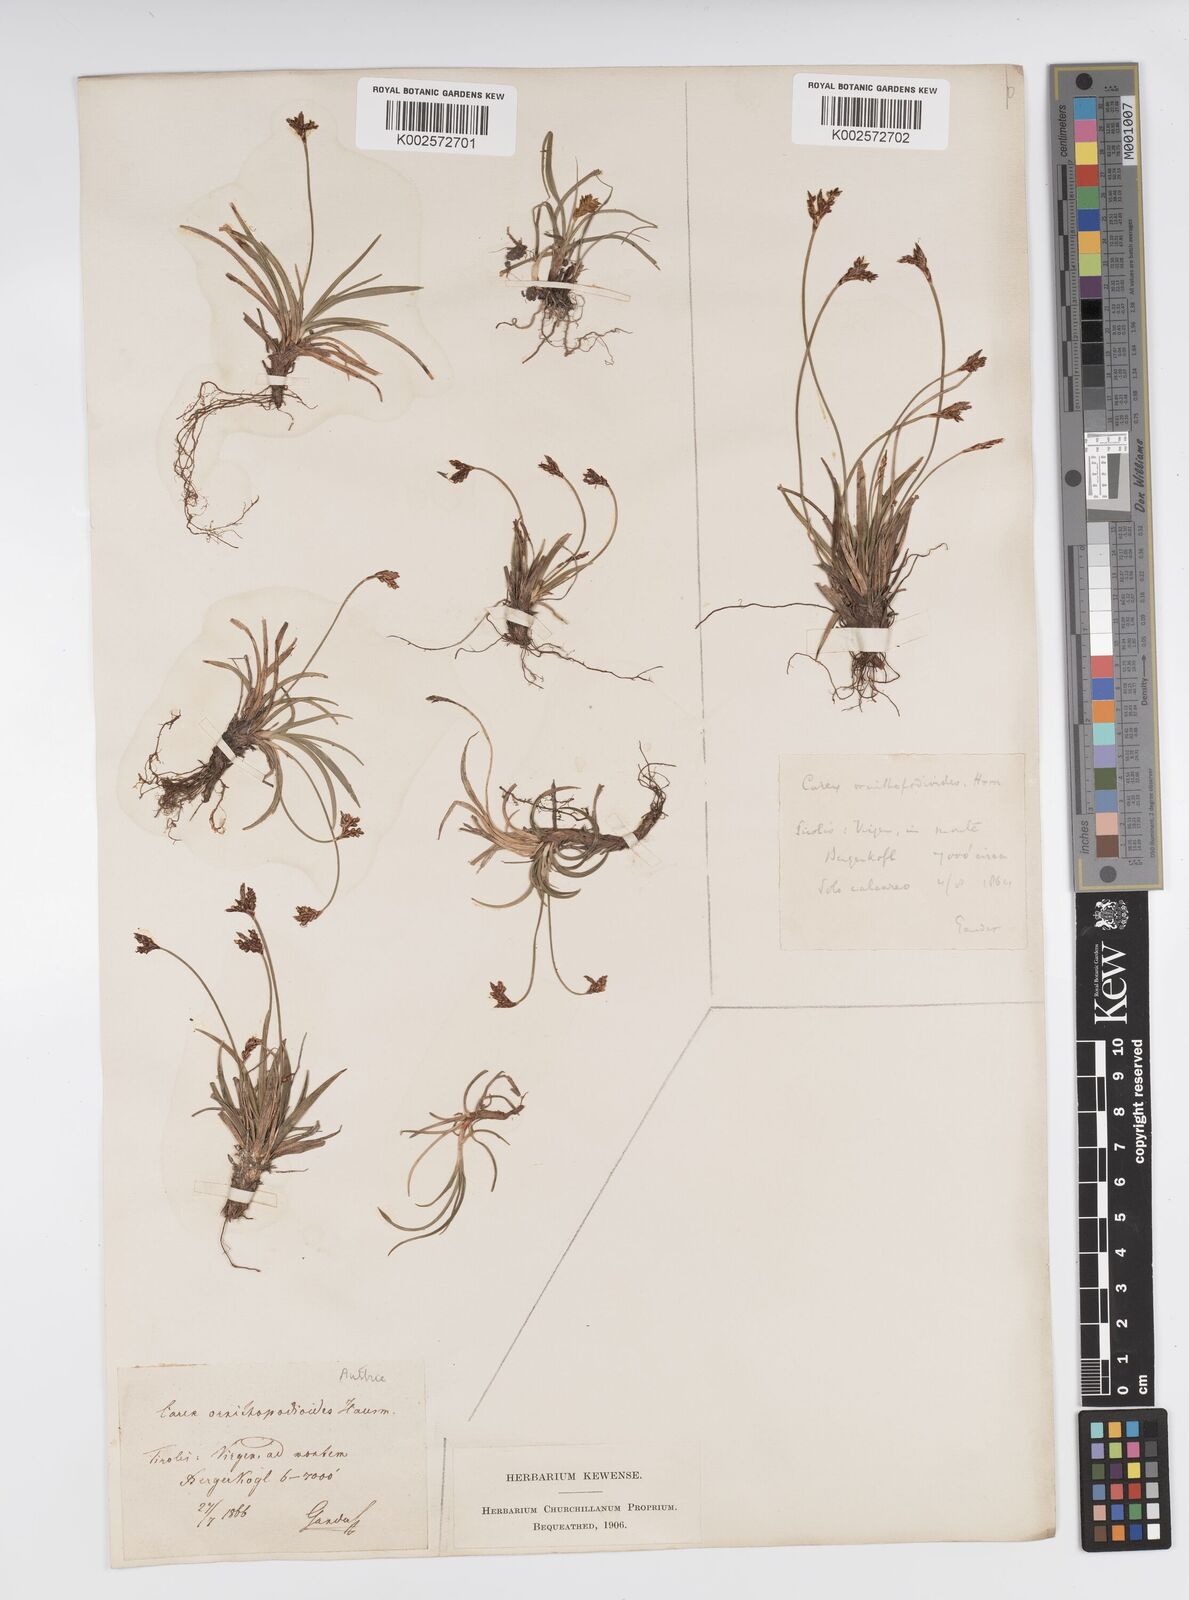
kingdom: Plantae
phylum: Tracheophyta
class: Liliopsida
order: Poales
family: Cyperaceae
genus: Carex
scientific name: Carex ornithopoda
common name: Bird's-foot sedge
